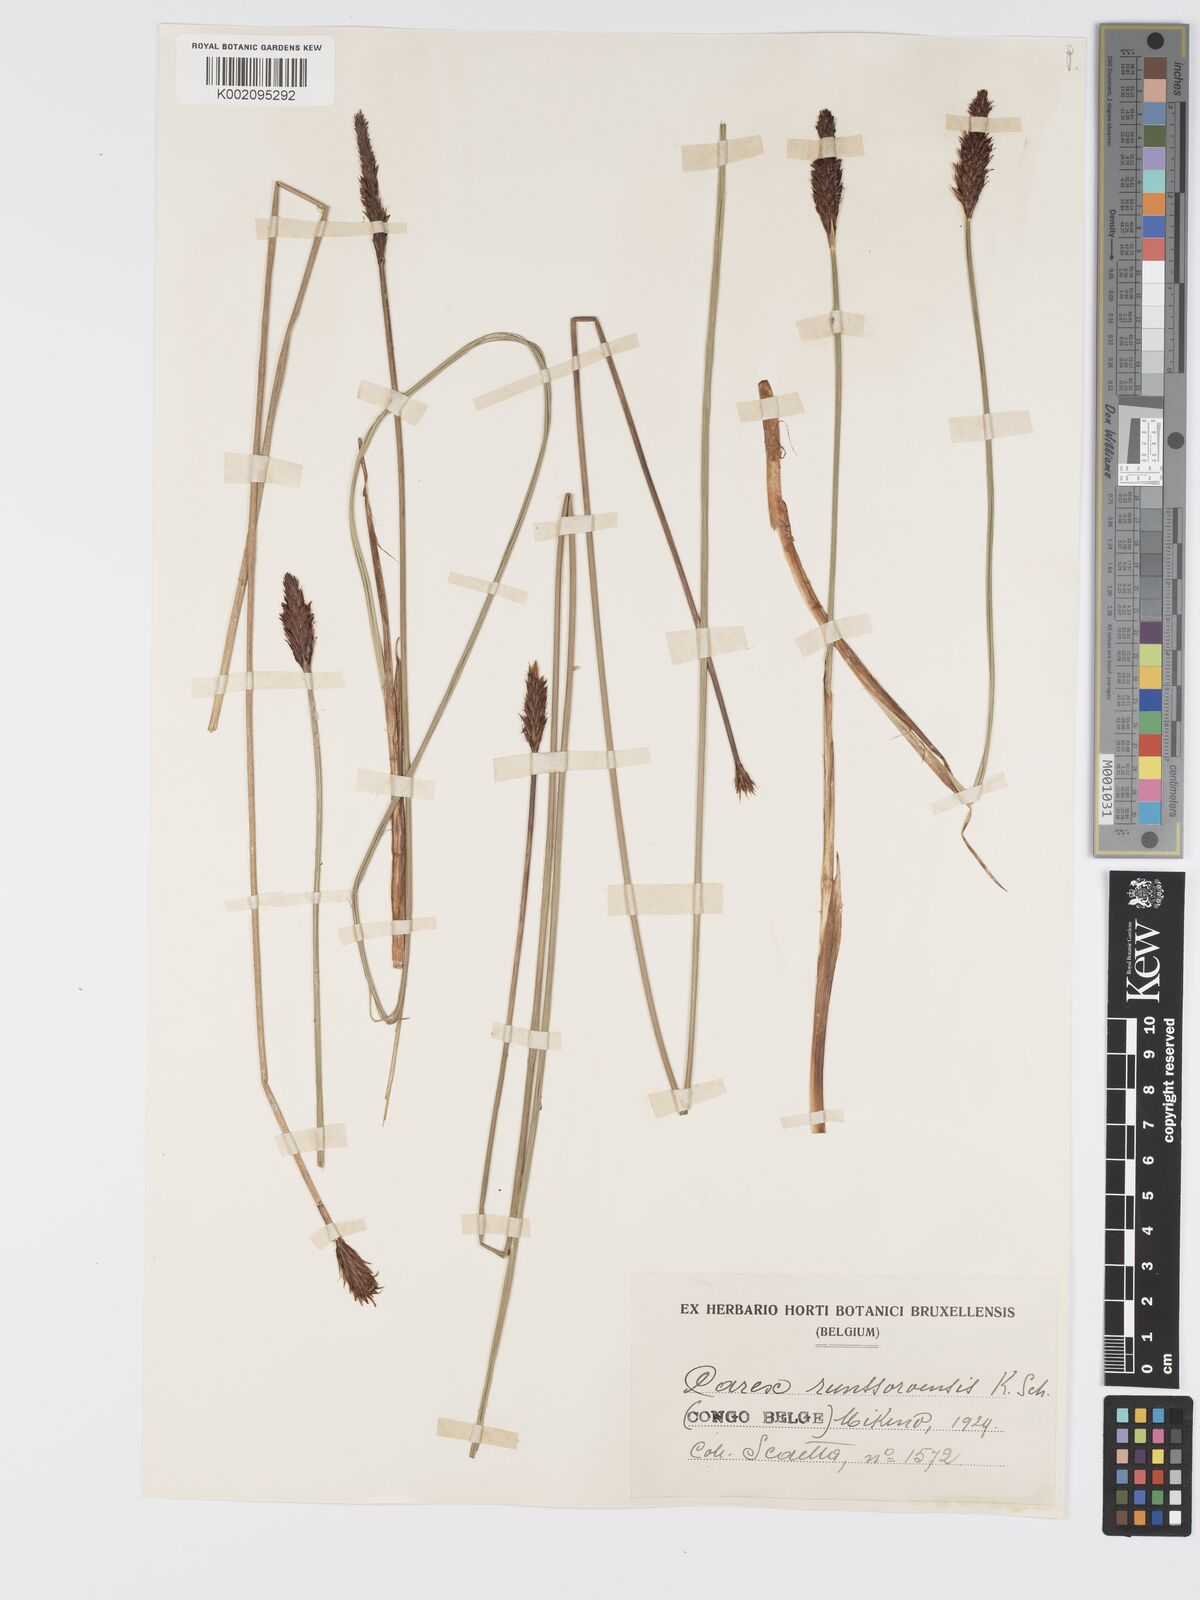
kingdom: Plantae
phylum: Tracheophyta
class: Liliopsida
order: Poales
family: Cyperaceae
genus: Carex
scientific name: Carex runssoroensis
